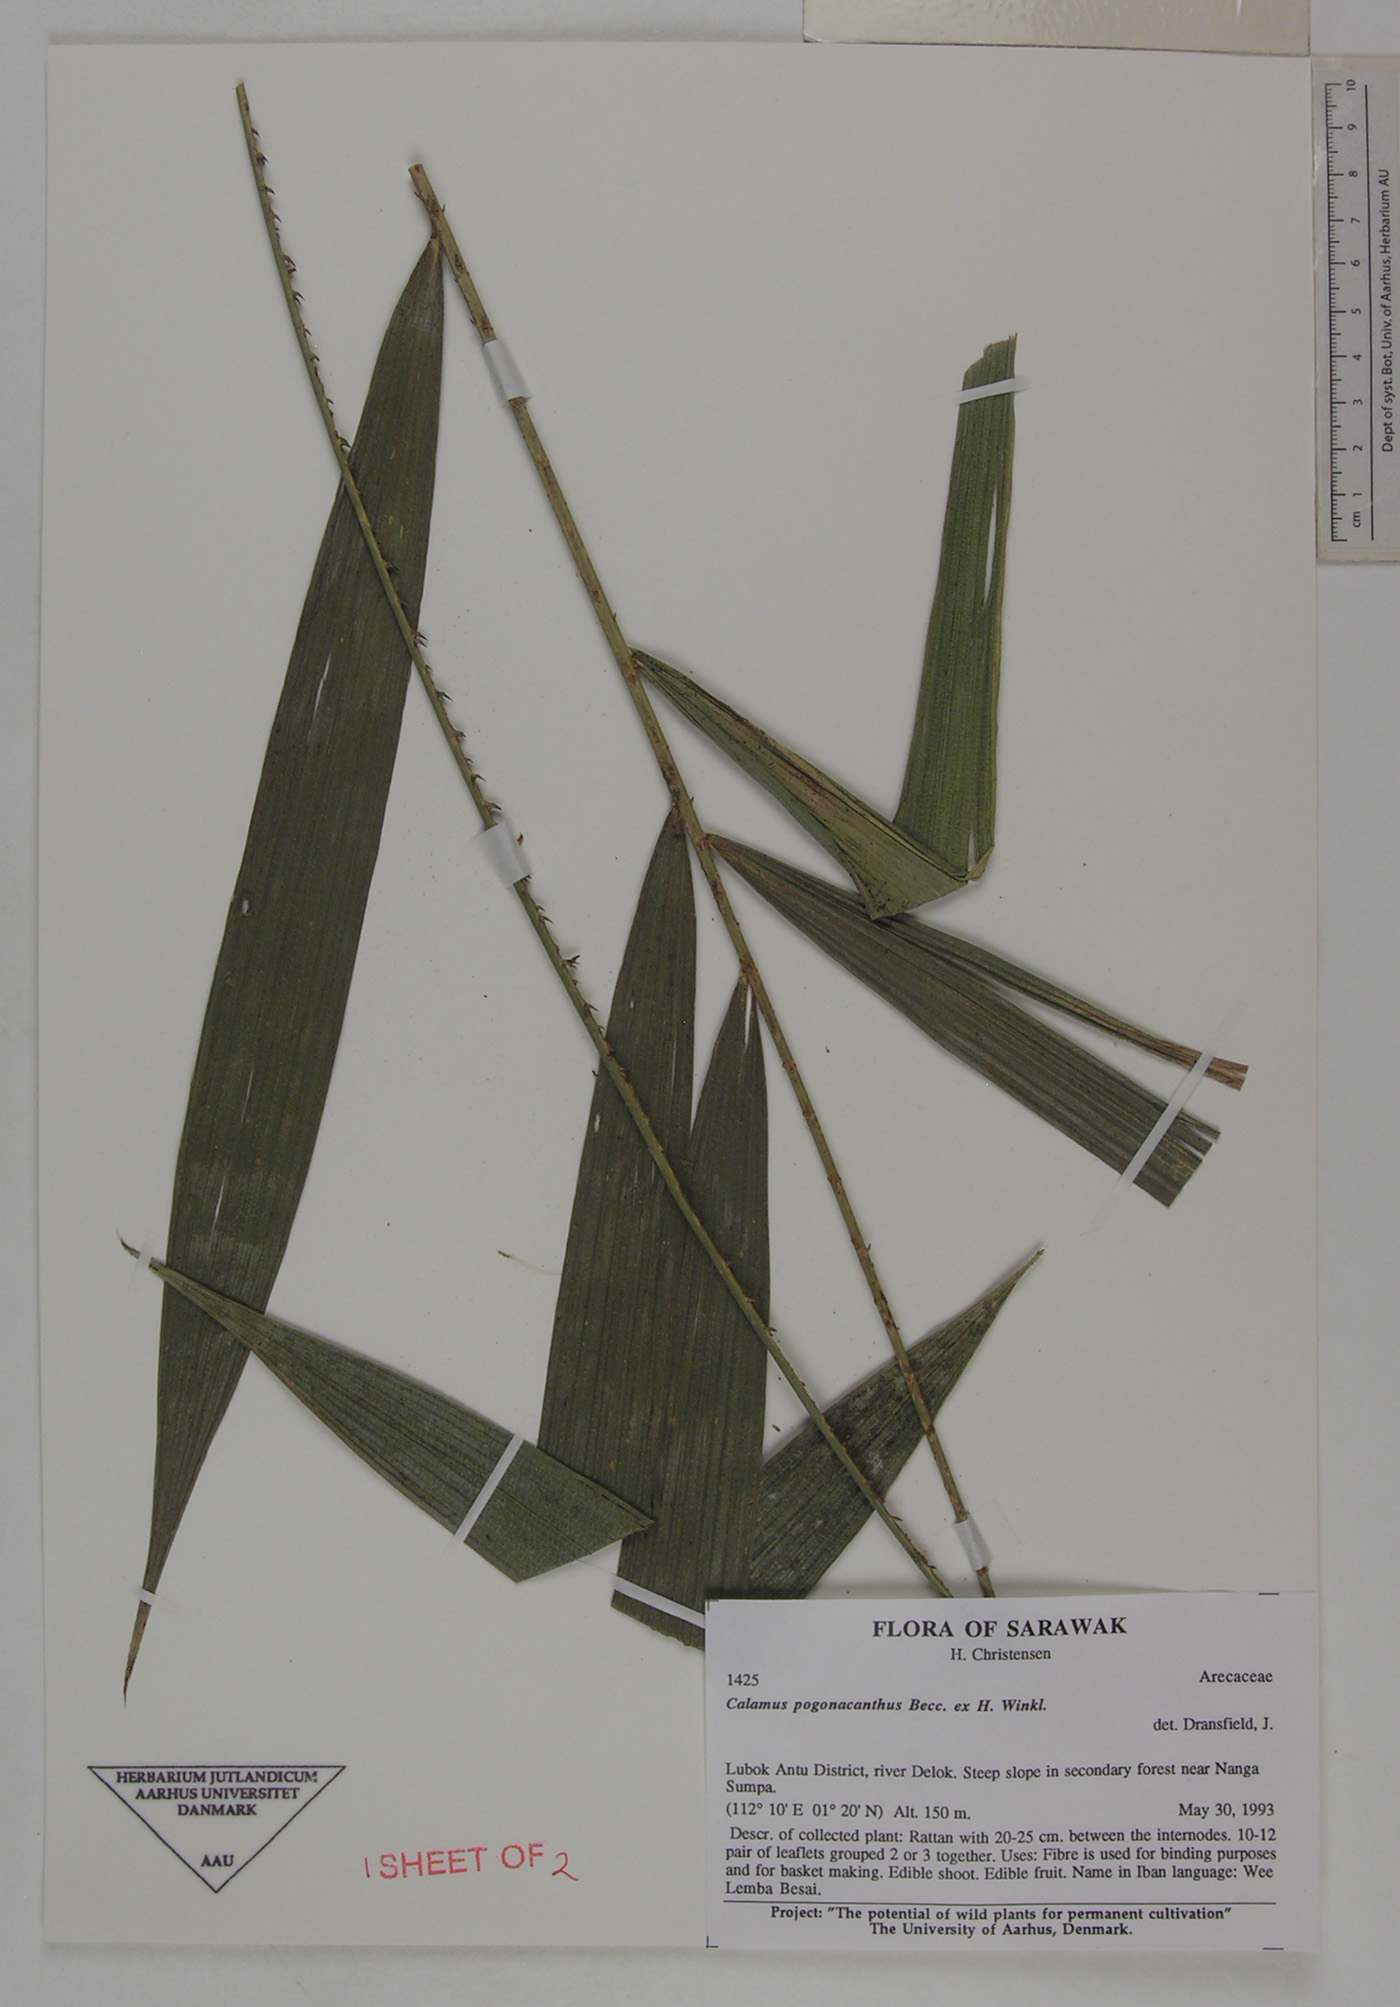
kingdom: Plantae
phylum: Tracheophyta
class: Liliopsida
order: Arecales
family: Arecaceae
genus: Calamus
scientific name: Calamus pogonacanthus
